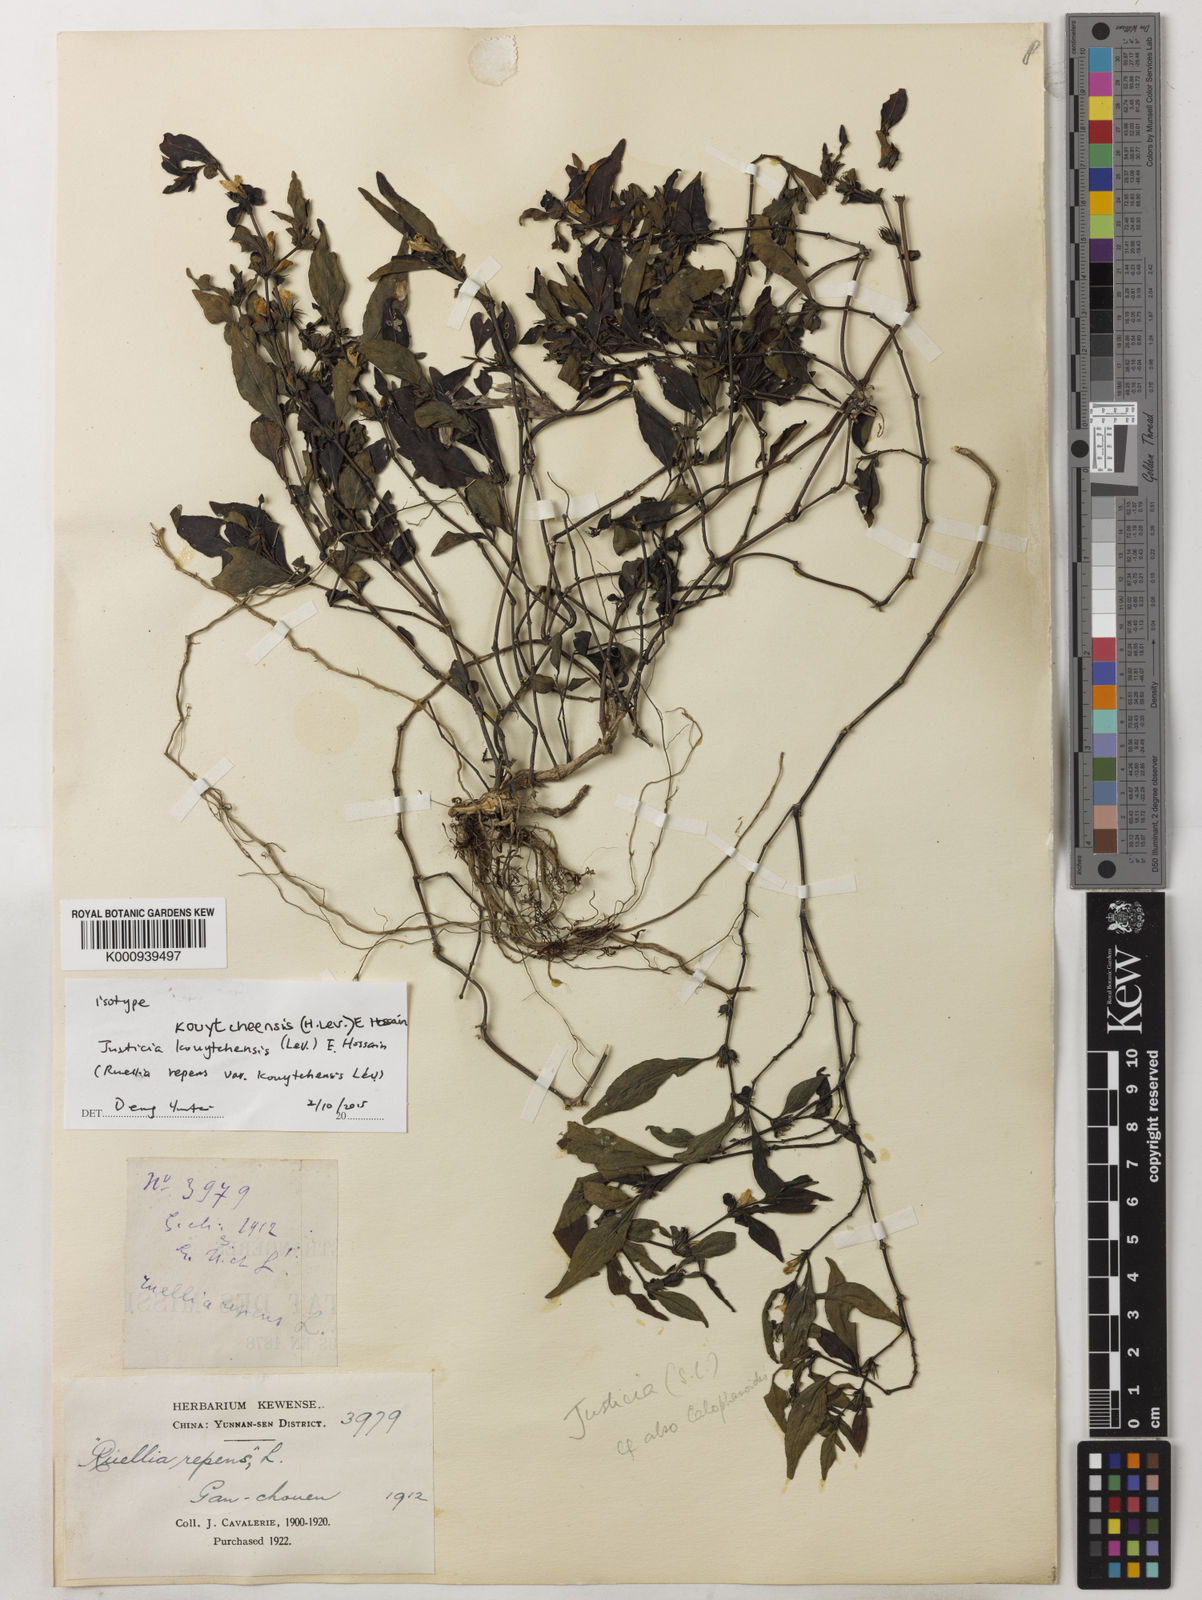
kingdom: Plantae
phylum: Tracheophyta
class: Magnoliopsida
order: Lamiales
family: Acanthaceae
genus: Justicia
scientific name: Justicia kouytcheensis
